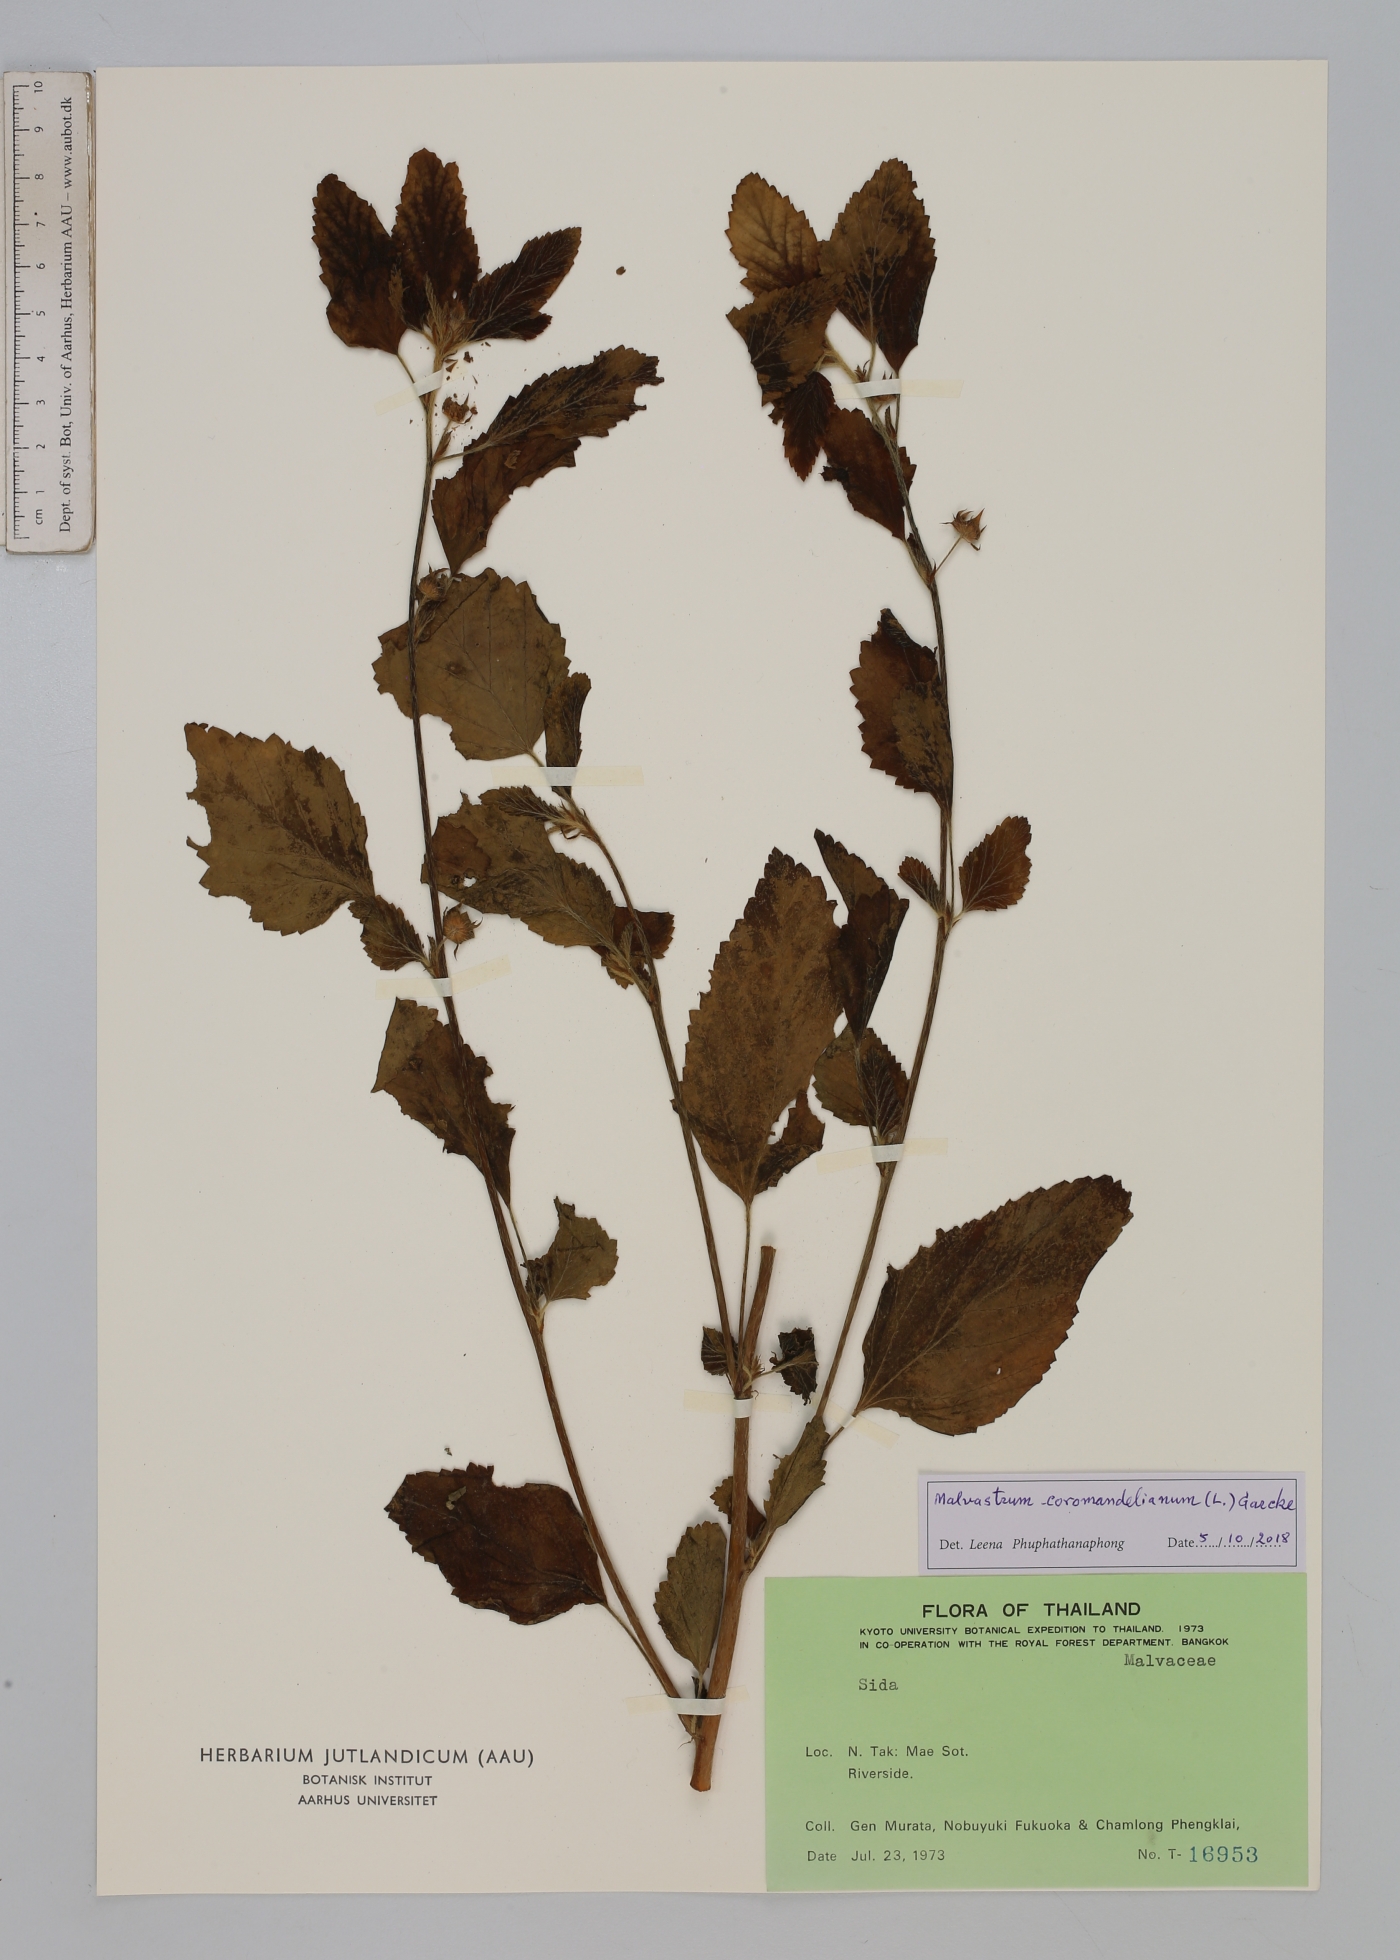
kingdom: Plantae
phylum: Tracheophyta
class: Magnoliopsida
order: Malvales
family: Malvaceae
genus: Malvastrum
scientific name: Malvastrum coromandelianum
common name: Threelobe false mallow
